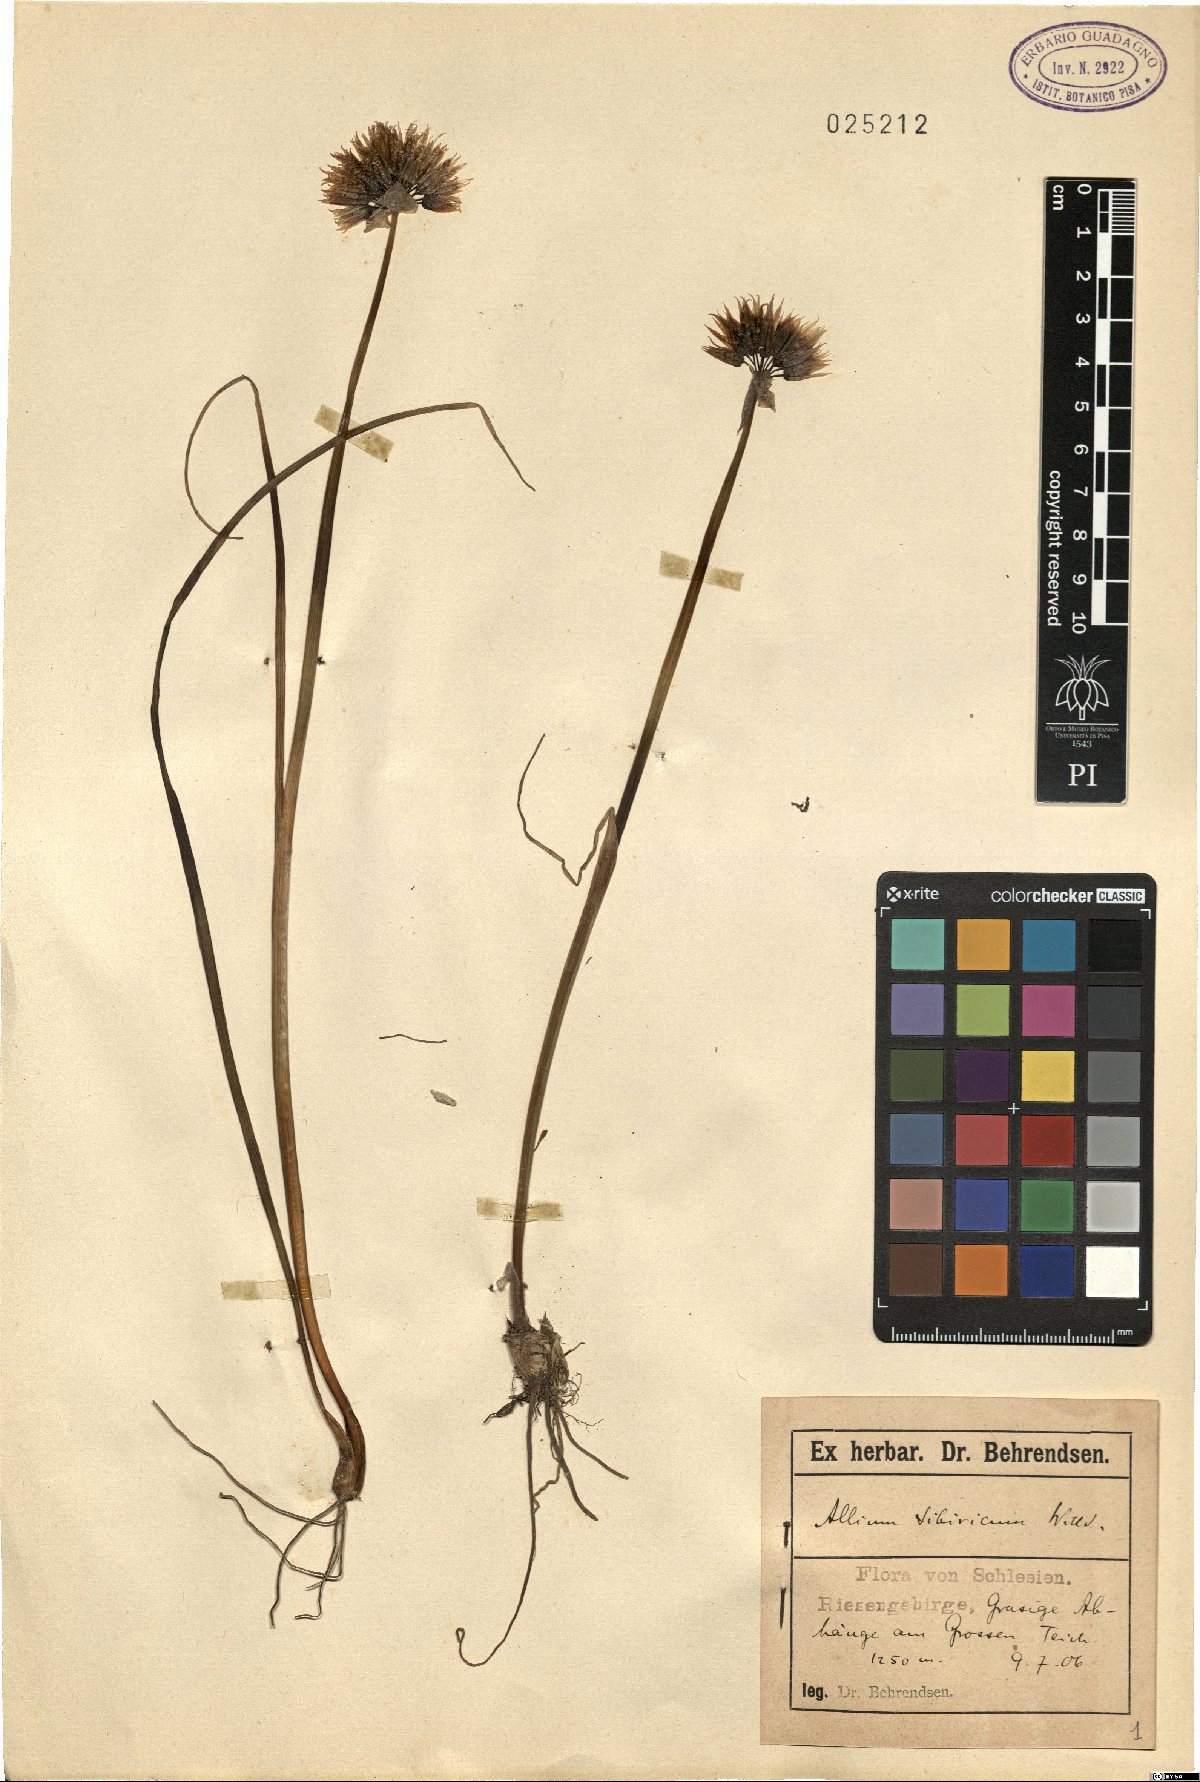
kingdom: Plantae
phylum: Tracheophyta
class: Liliopsida
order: Asparagales
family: Amaryllidaceae
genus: Allium
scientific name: Allium schoenoprasum
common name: Chives
